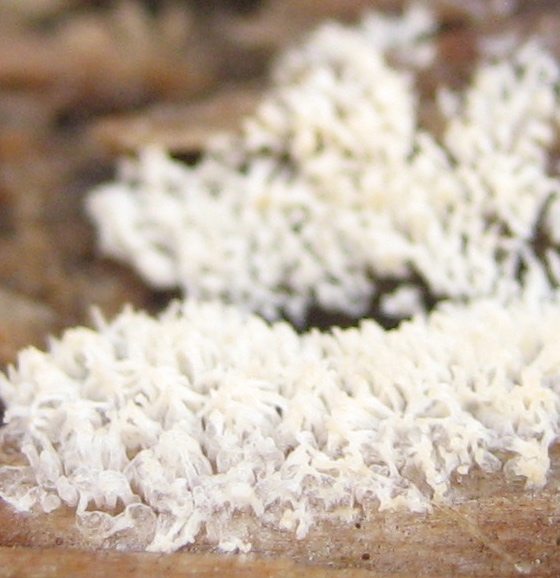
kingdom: Protozoa
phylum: Mycetozoa
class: Protosteliomycetes
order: Ceratiomyxales
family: Ceratiomyxaceae
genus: Ceratiomyxa
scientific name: Ceratiomyxa fruticulosa
